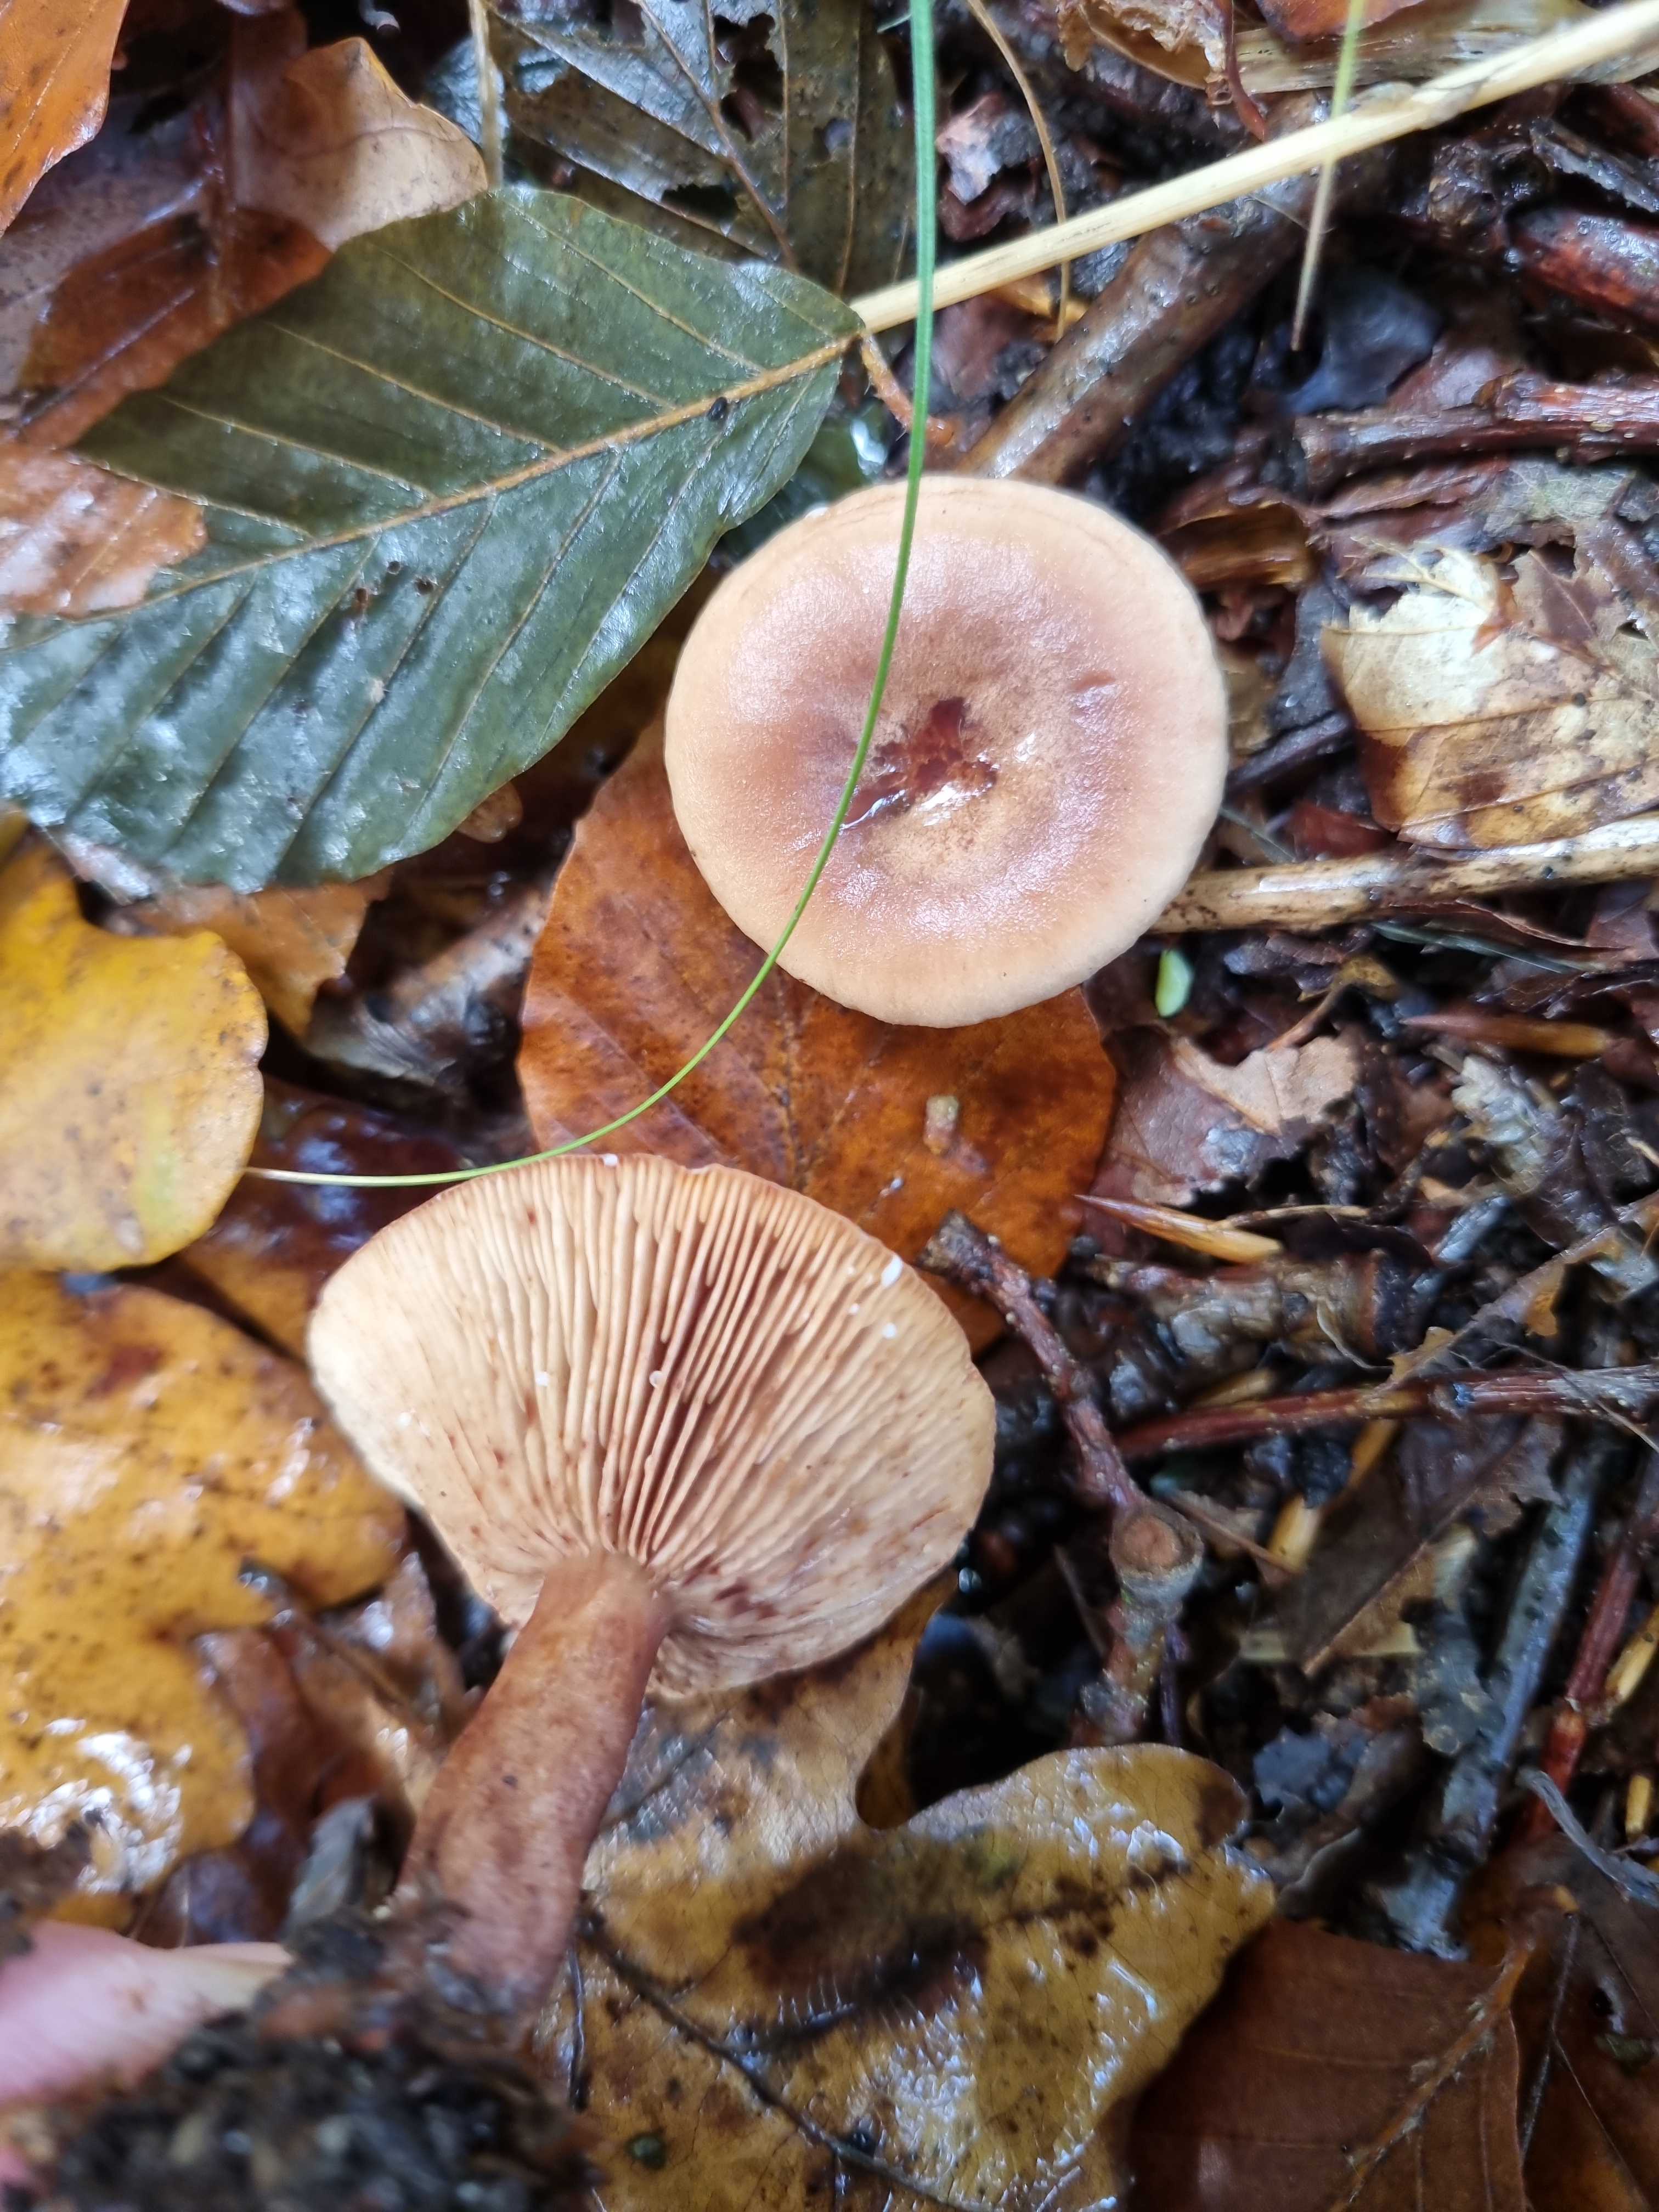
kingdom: Fungi
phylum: Basidiomycota
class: Agaricomycetes
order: Russulales
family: Russulaceae
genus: Lactarius
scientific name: Lactarius
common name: mælkehat
